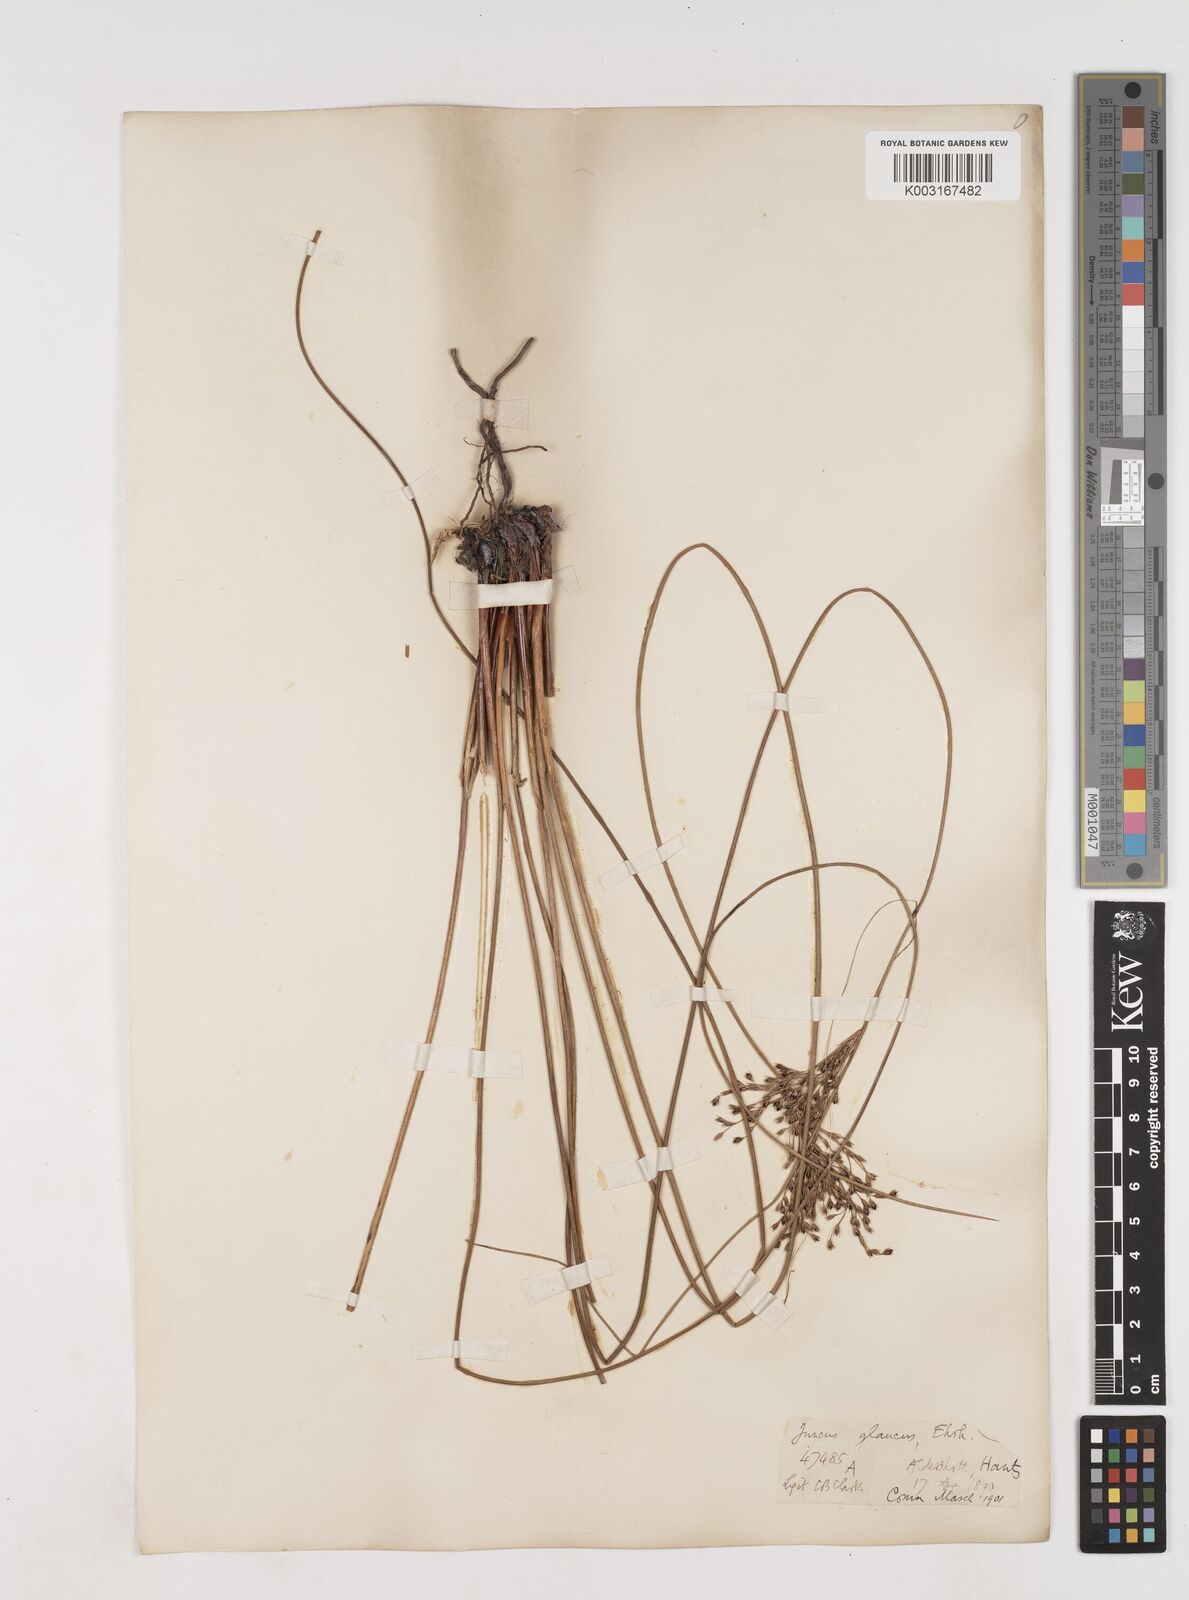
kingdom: Plantae
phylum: Tracheophyta
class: Liliopsida
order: Poales
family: Juncaceae
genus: Juncus
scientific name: Juncus inflexus
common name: Hard rush
